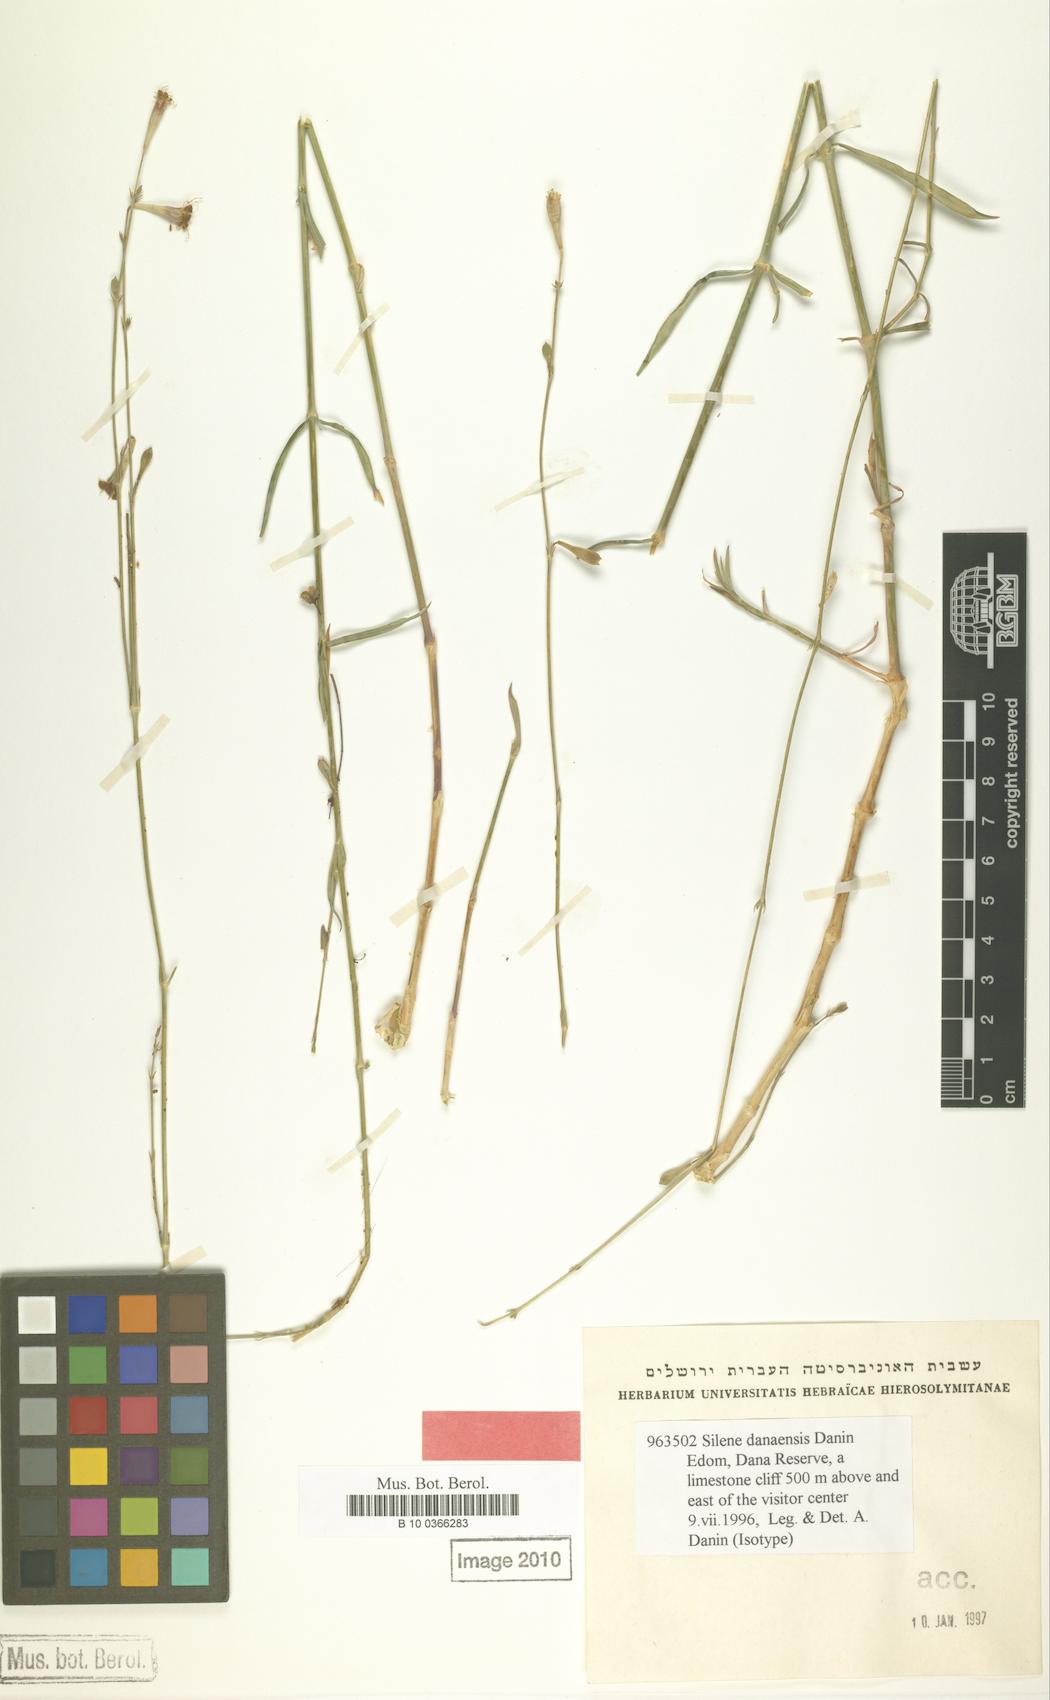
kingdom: Plantae
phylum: Tracheophyta
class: Magnoliopsida
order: Caryophyllales
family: Caryophyllaceae
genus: Silene
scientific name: Silene danaensis
